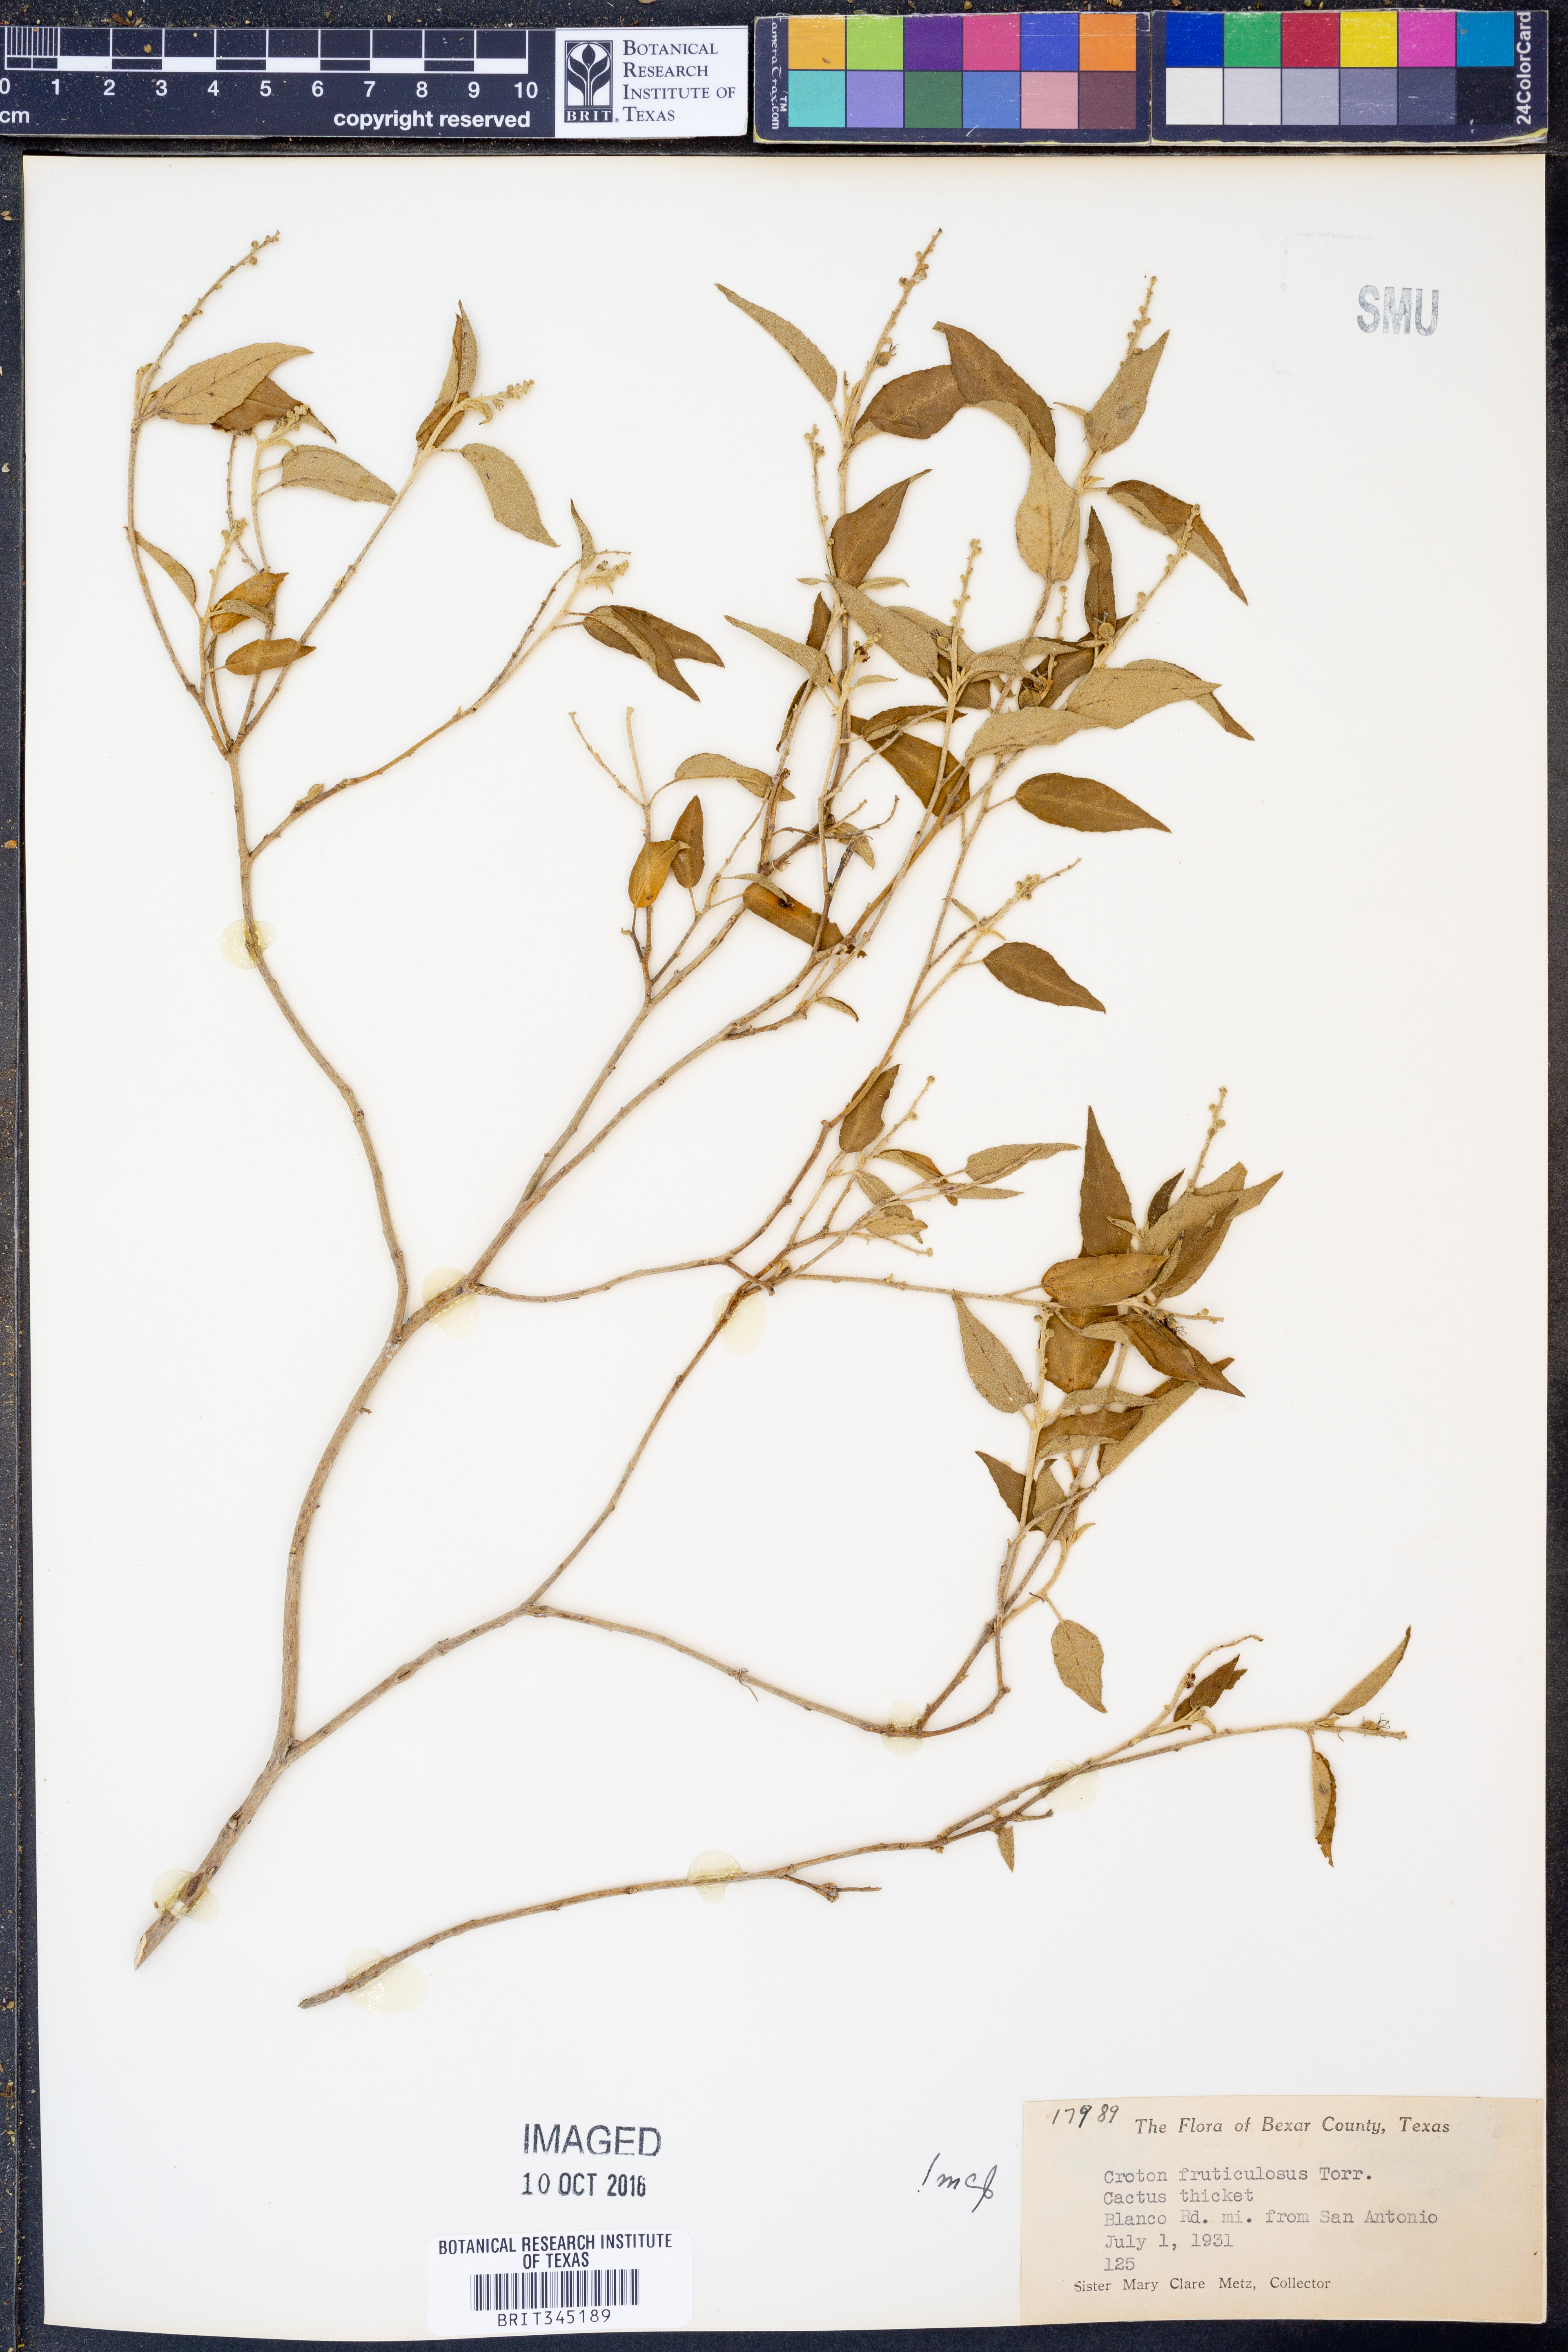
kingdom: Plantae
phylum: Tracheophyta
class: Magnoliopsida
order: Malpighiales
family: Euphorbiaceae
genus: Croton
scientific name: Croton fruticulosus
